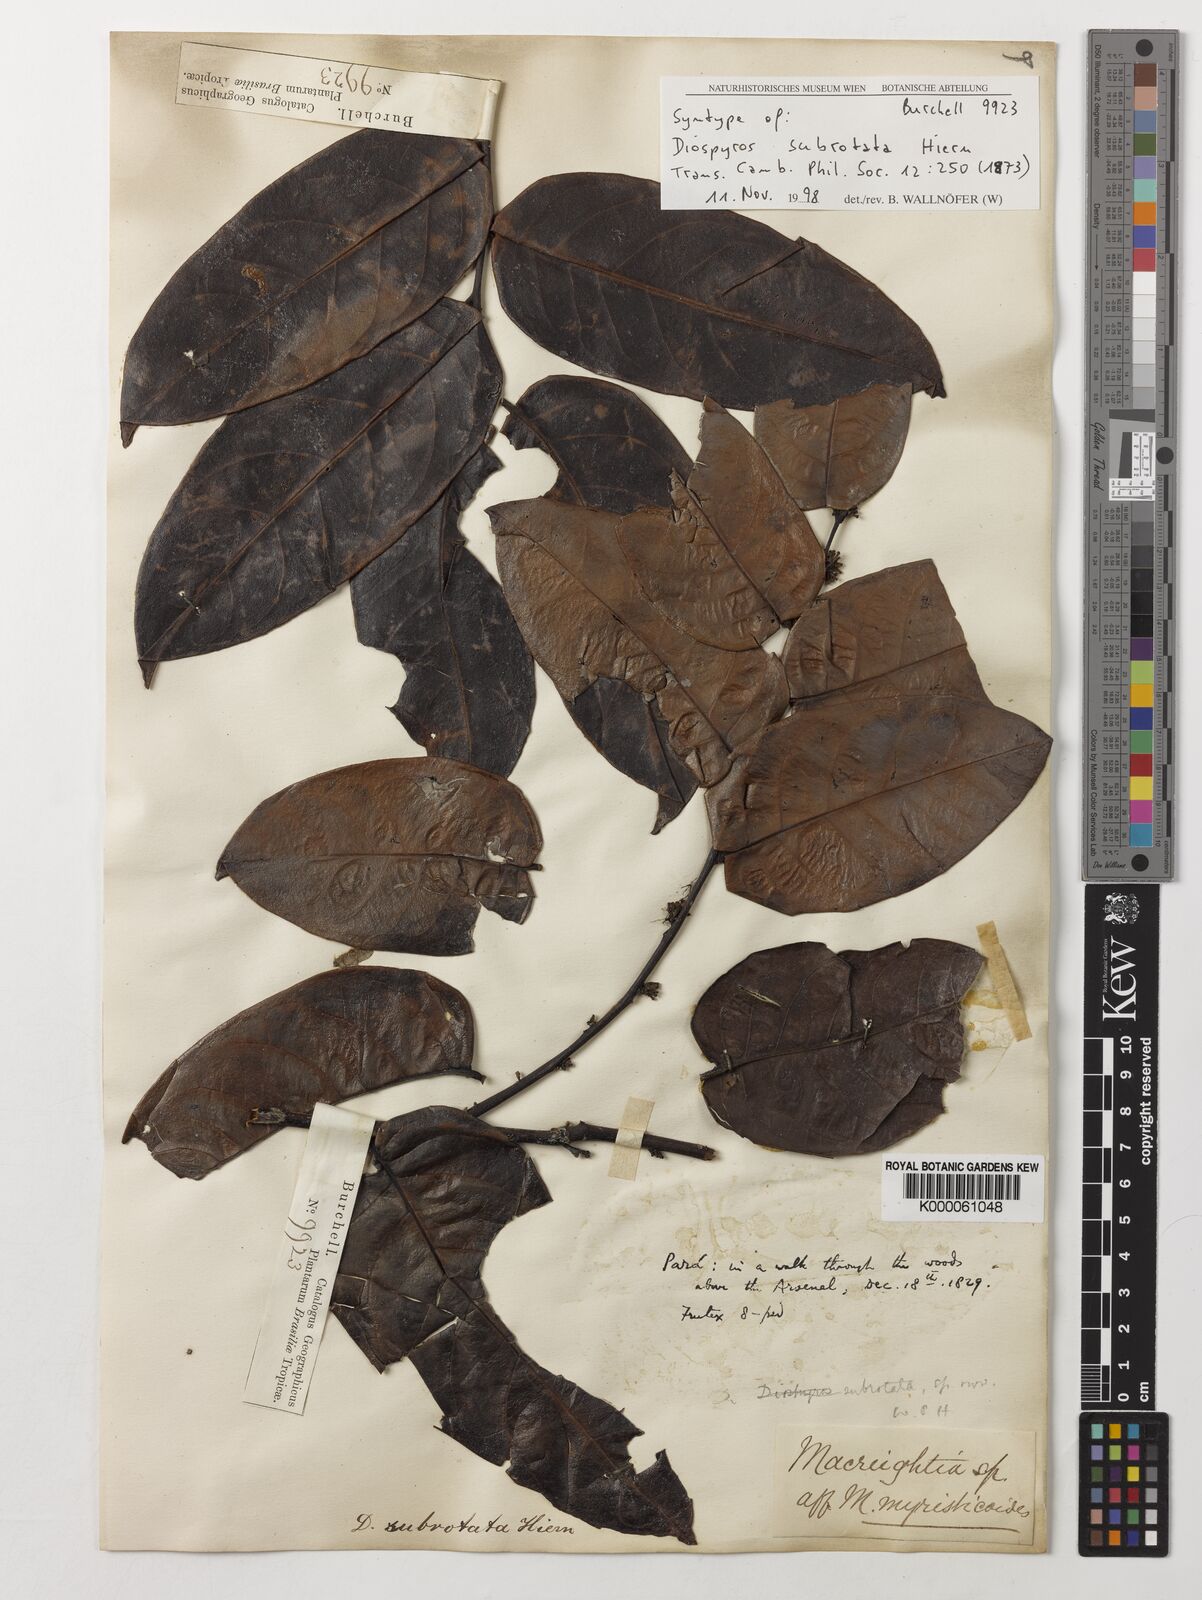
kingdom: Plantae
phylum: Tracheophyta
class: Magnoliopsida
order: Ericales
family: Ebenaceae
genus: Diospyros
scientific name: Diospyros subrotata
